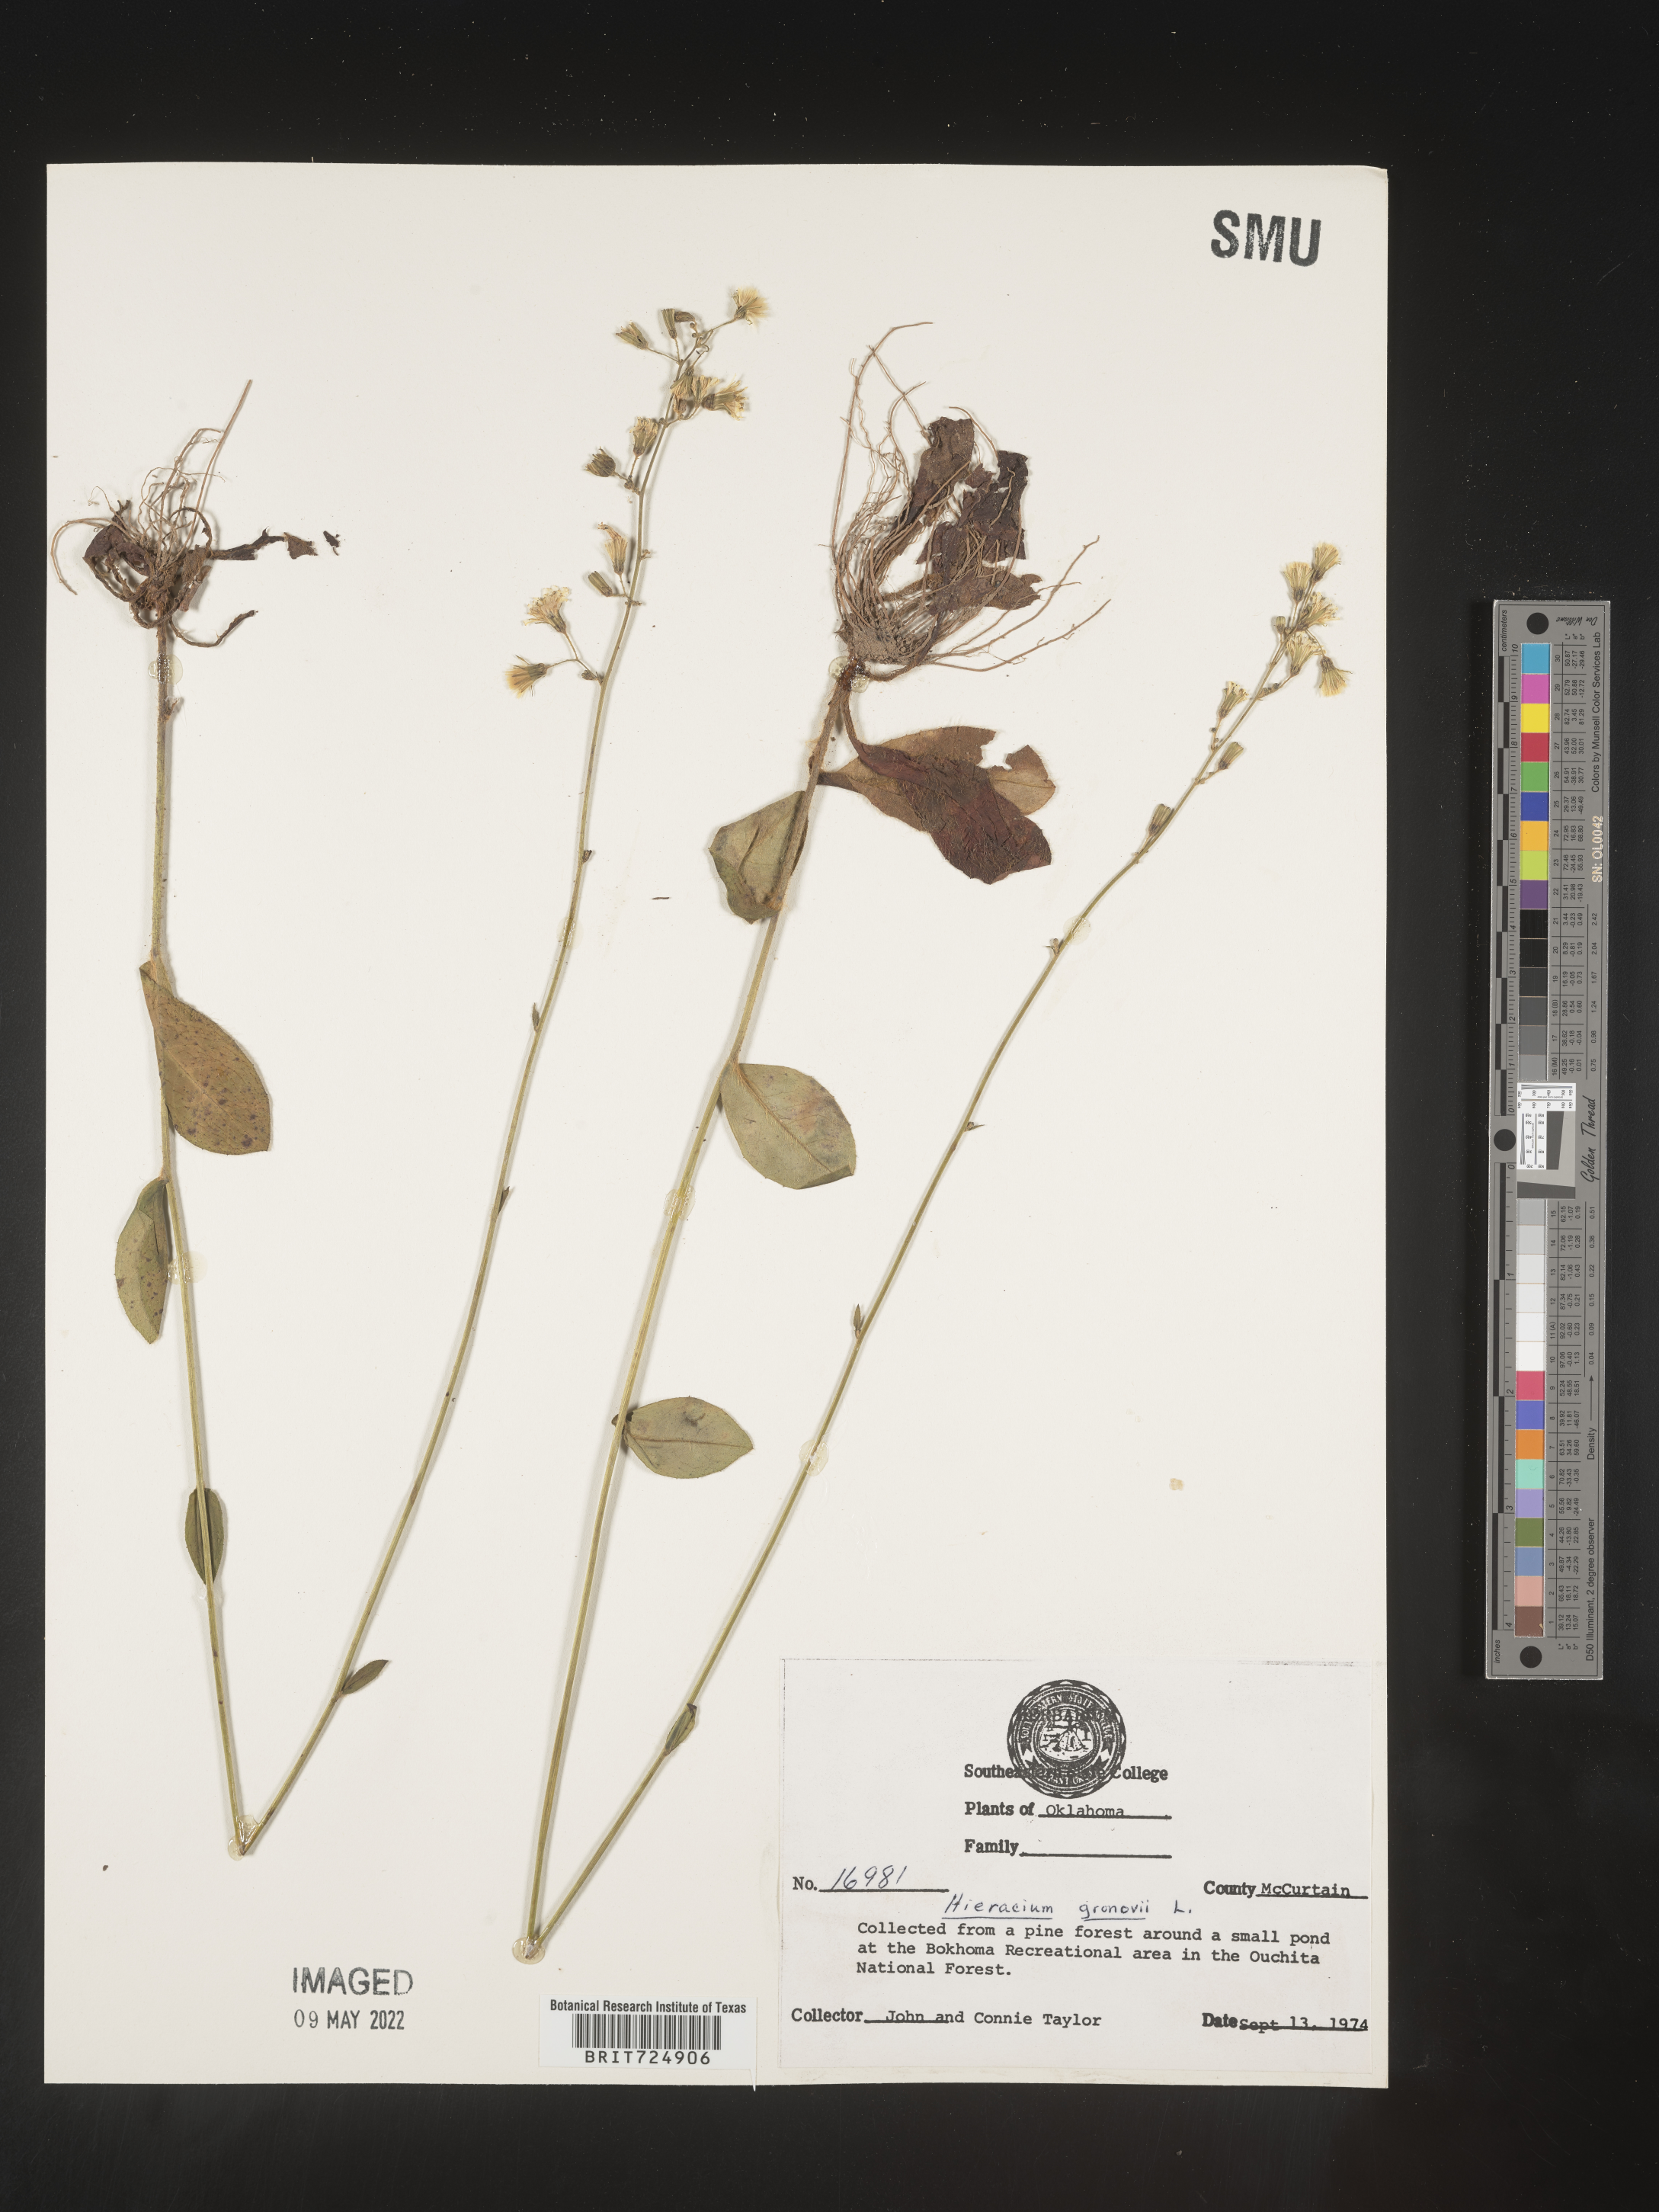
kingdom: Plantae
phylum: Tracheophyta
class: Magnoliopsida
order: Asterales
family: Asteraceae
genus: Hieracium
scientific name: Hieracium gronovii
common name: Beaked hawkweed
